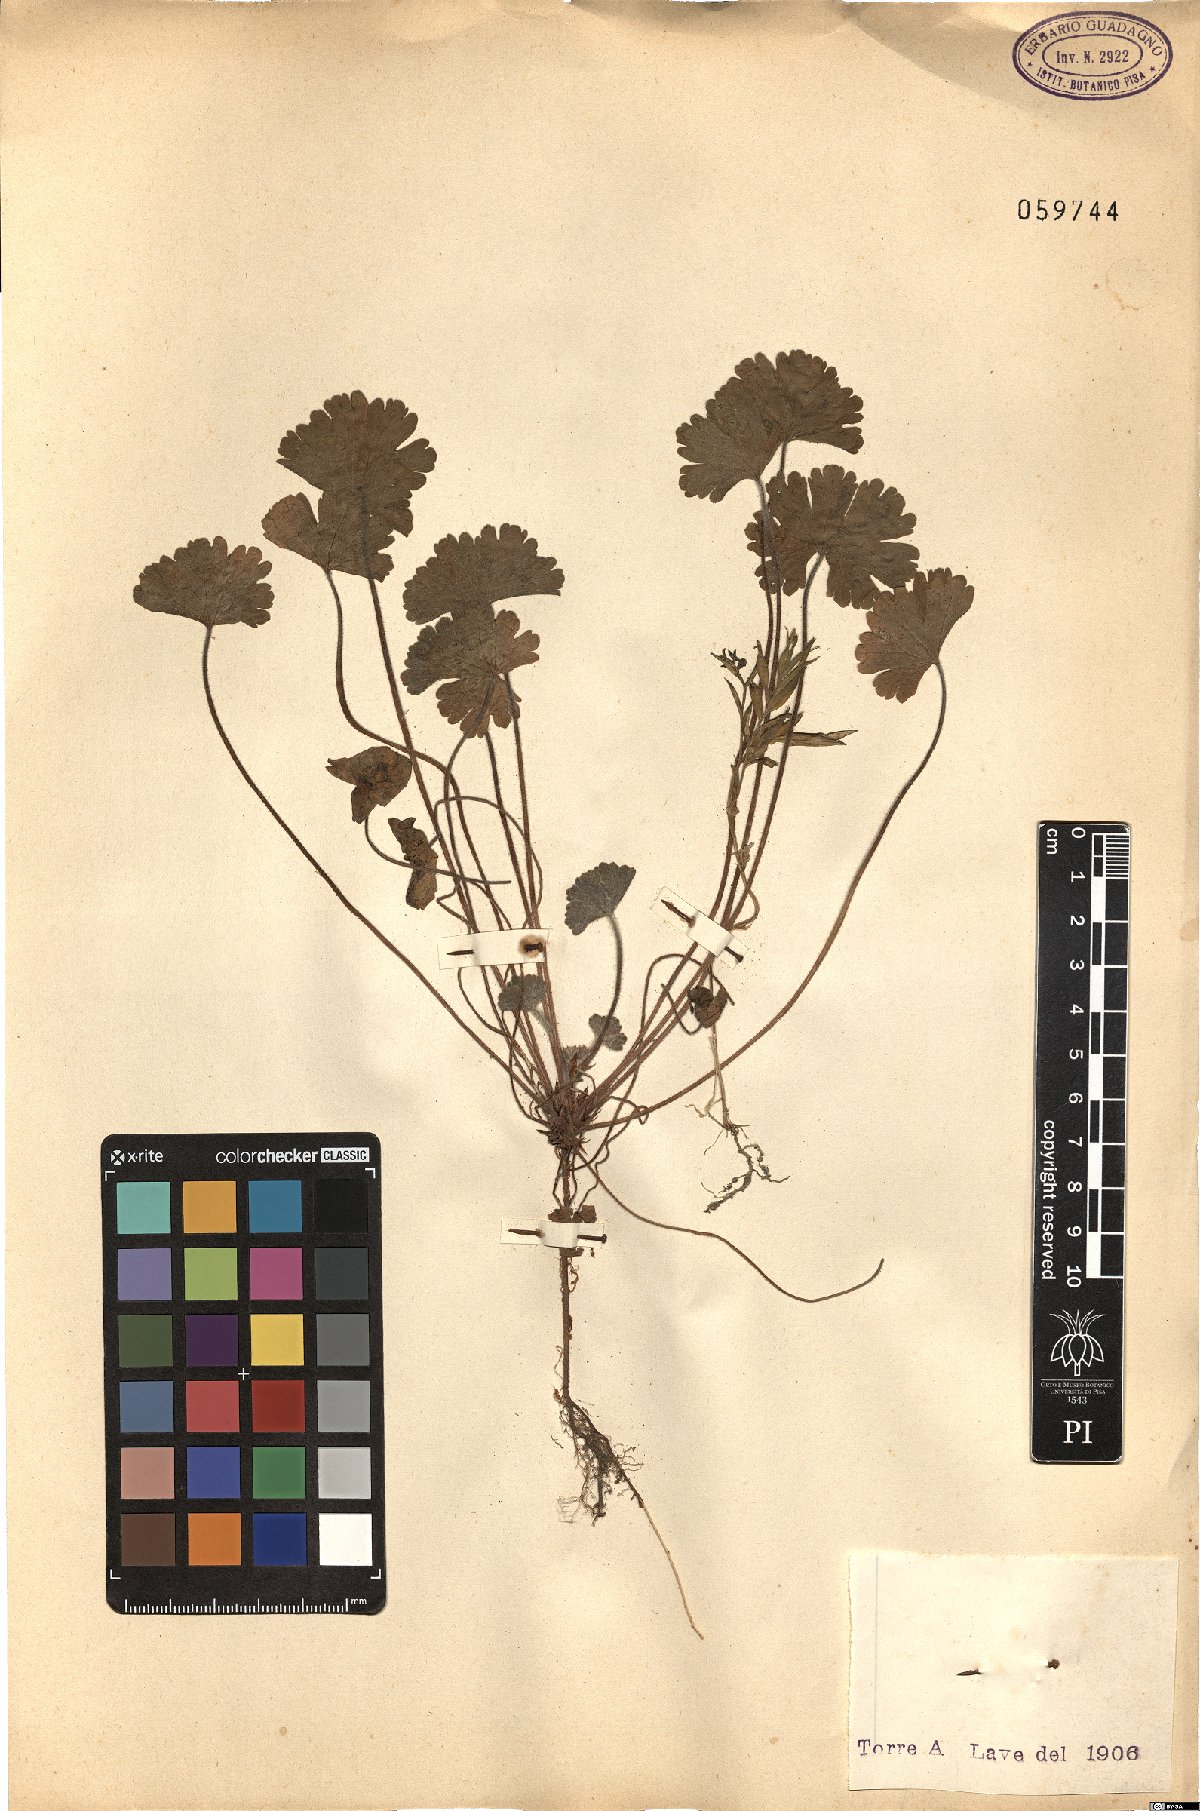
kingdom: Plantae
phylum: Tracheophyta
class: Magnoliopsida
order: Geraniales
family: Geraniaceae
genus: Geranium
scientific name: Geranium
